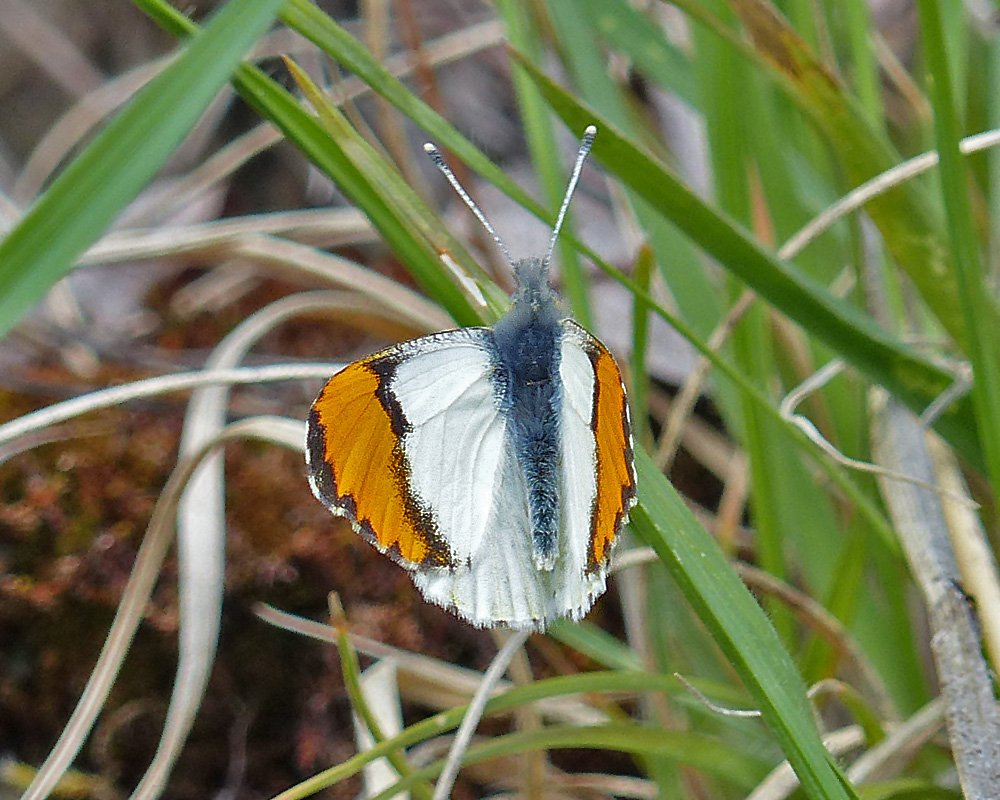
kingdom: Animalia
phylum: Arthropoda
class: Insecta
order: Lepidoptera
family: Pieridae
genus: Anthocharis
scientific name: Anthocharis sara
